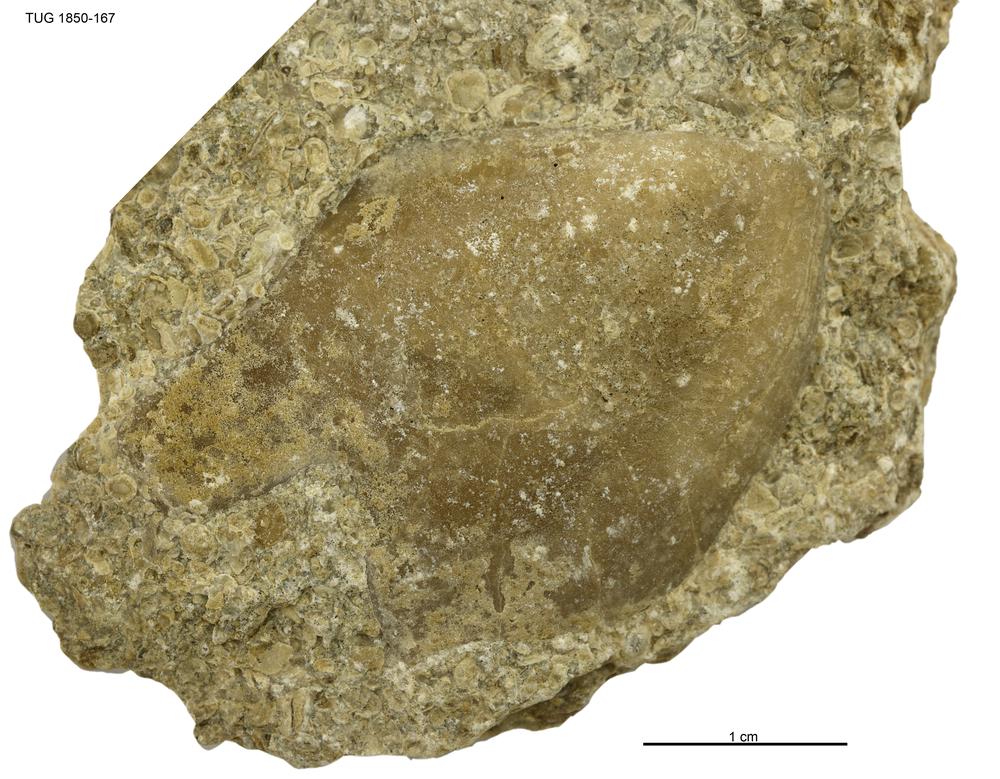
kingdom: Animalia
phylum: Mollusca
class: Bivalvia
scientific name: Bivalvia
